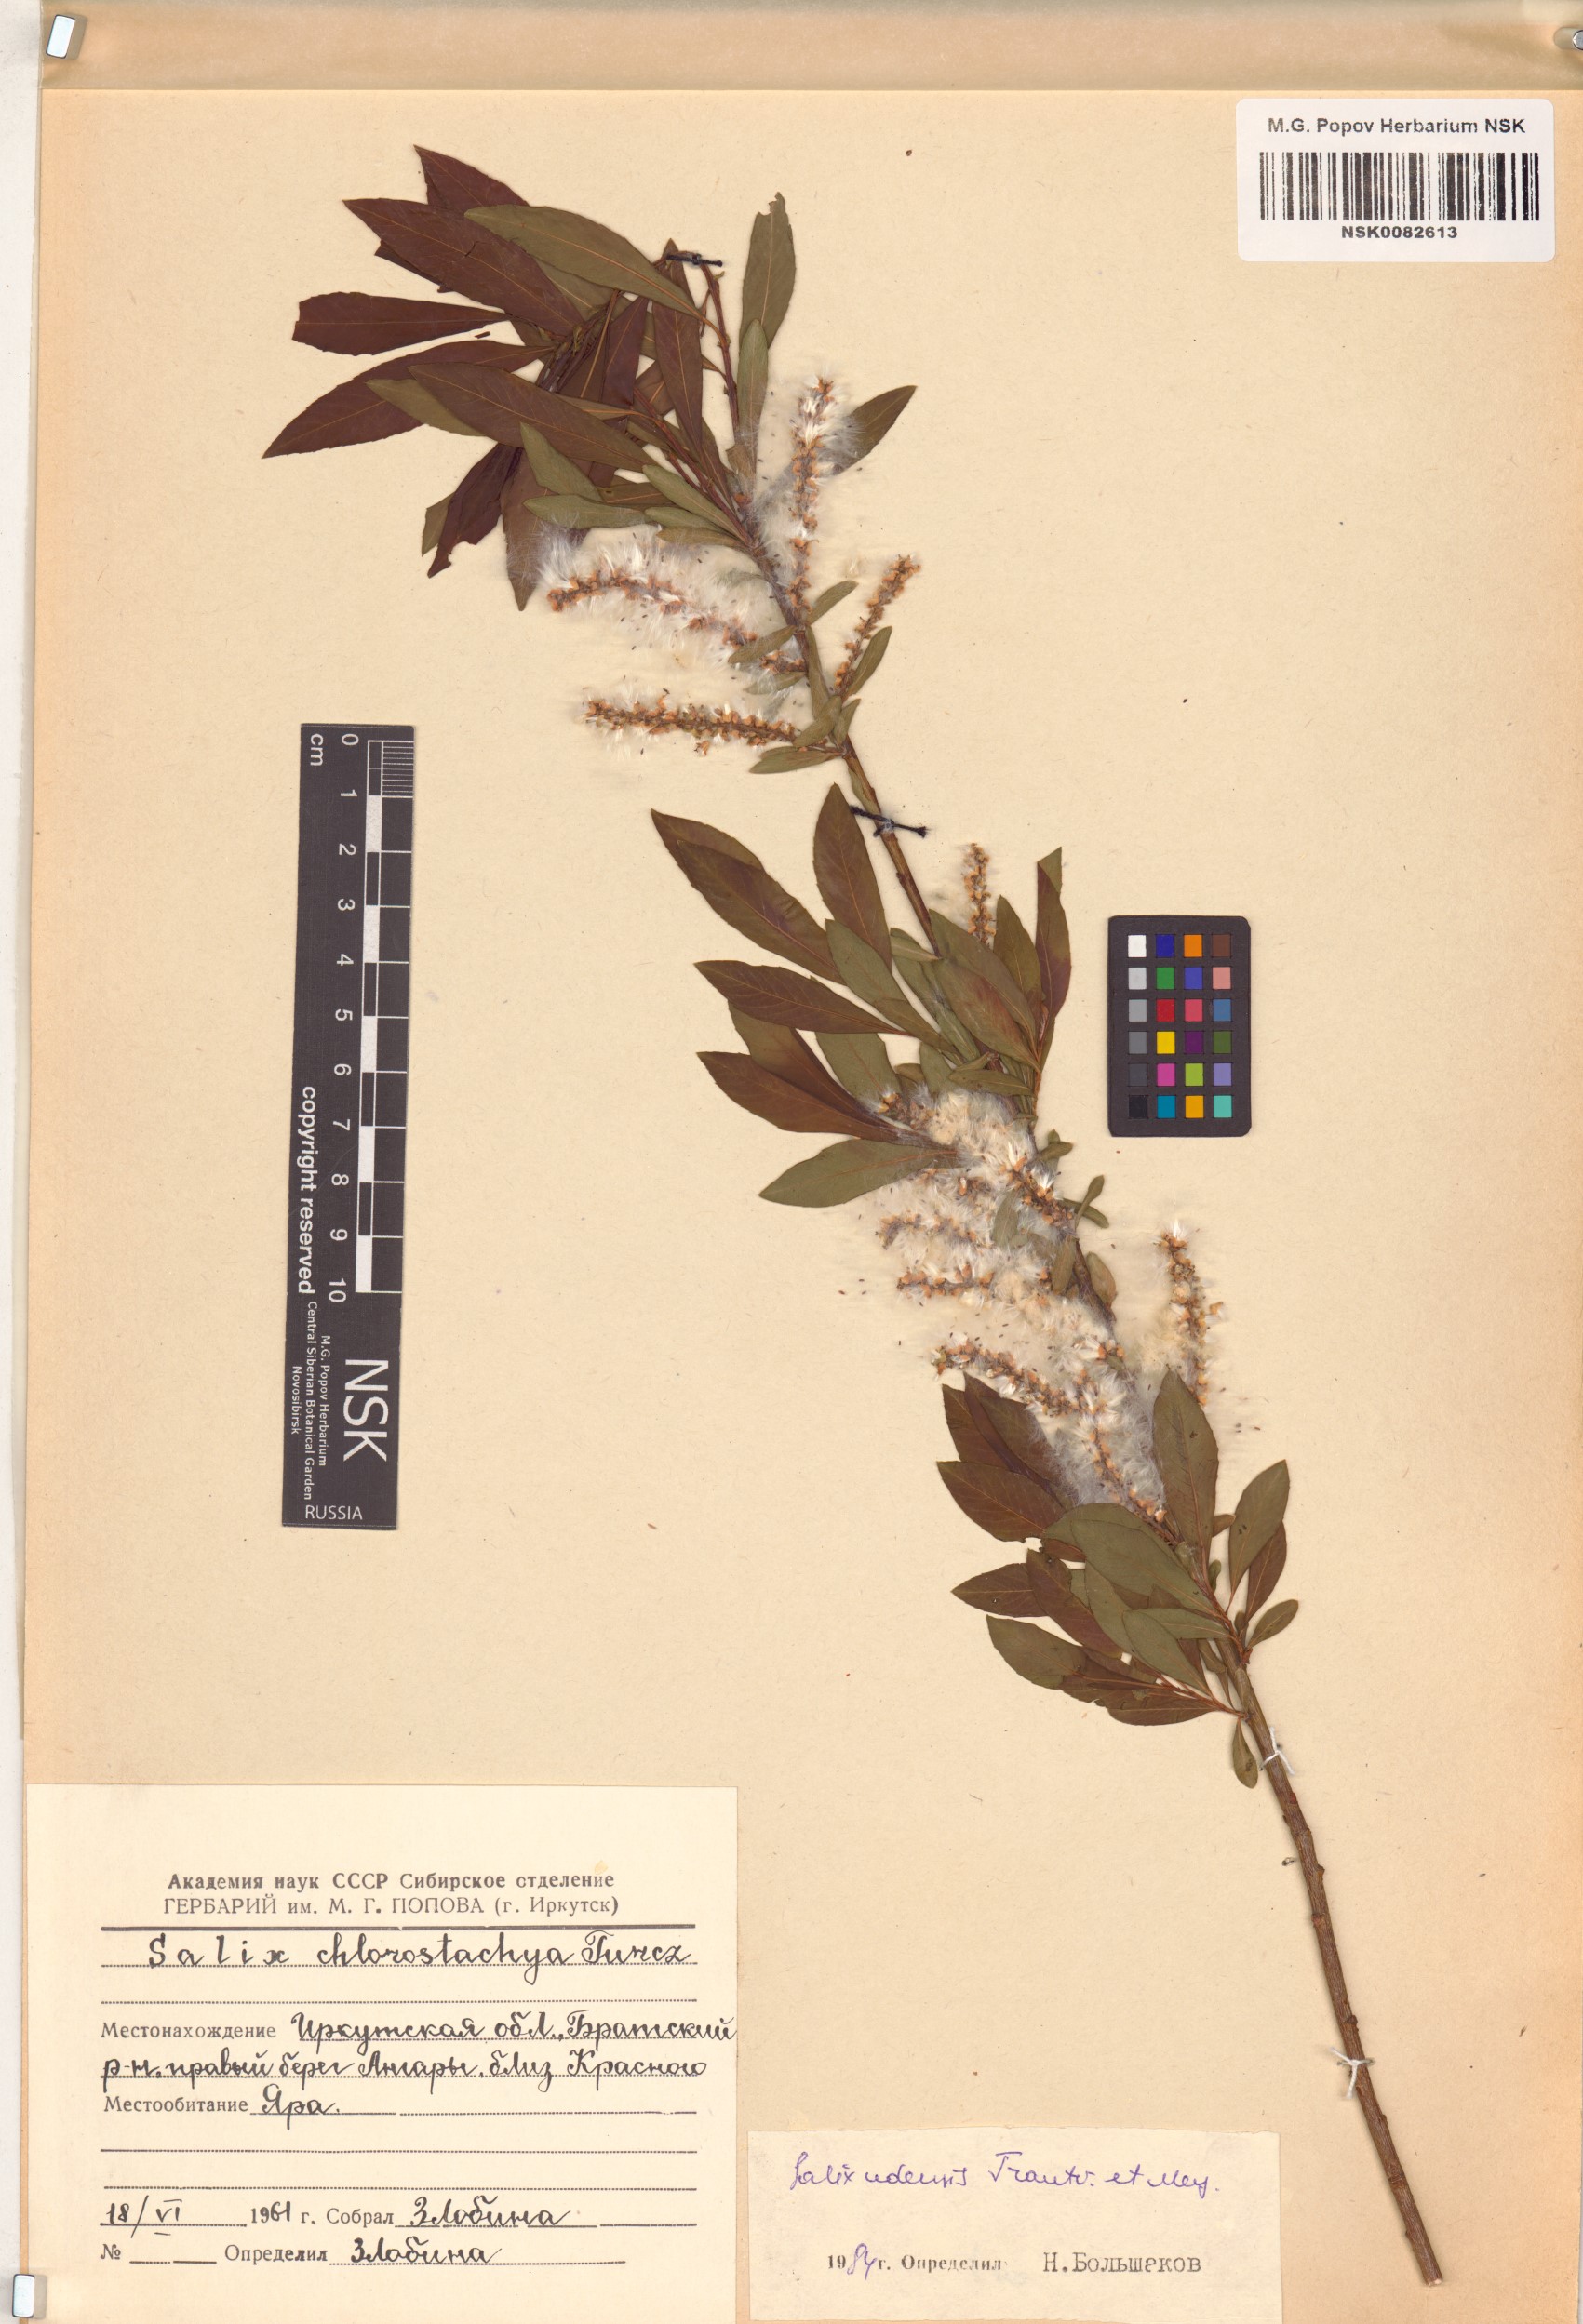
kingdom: Plantae
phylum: Tracheophyta
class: Magnoliopsida
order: Malpighiales
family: Salicaceae
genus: Salix
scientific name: Salix udensis
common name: Sachalin willow
